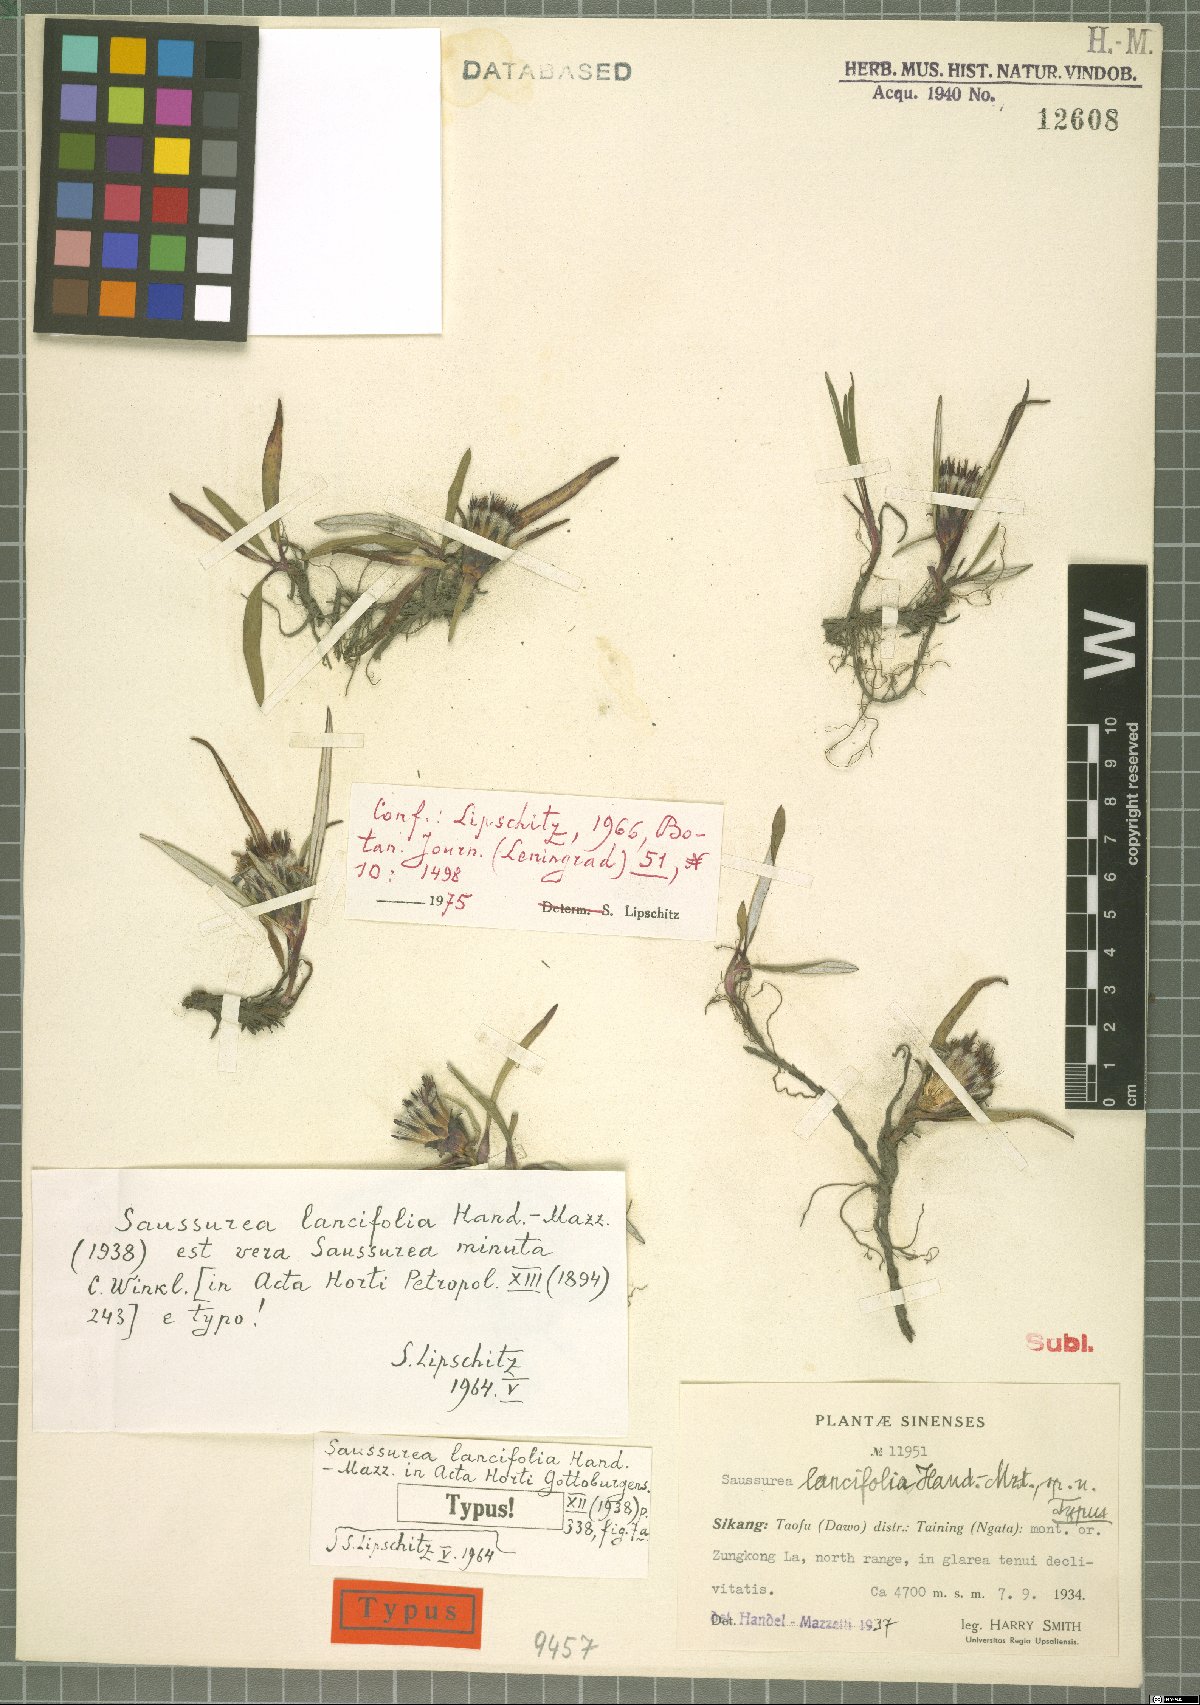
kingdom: Plantae
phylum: Tracheophyta
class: Magnoliopsida
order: Asterales
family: Asteraceae
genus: Saussurea
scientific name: Saussurea minuta
